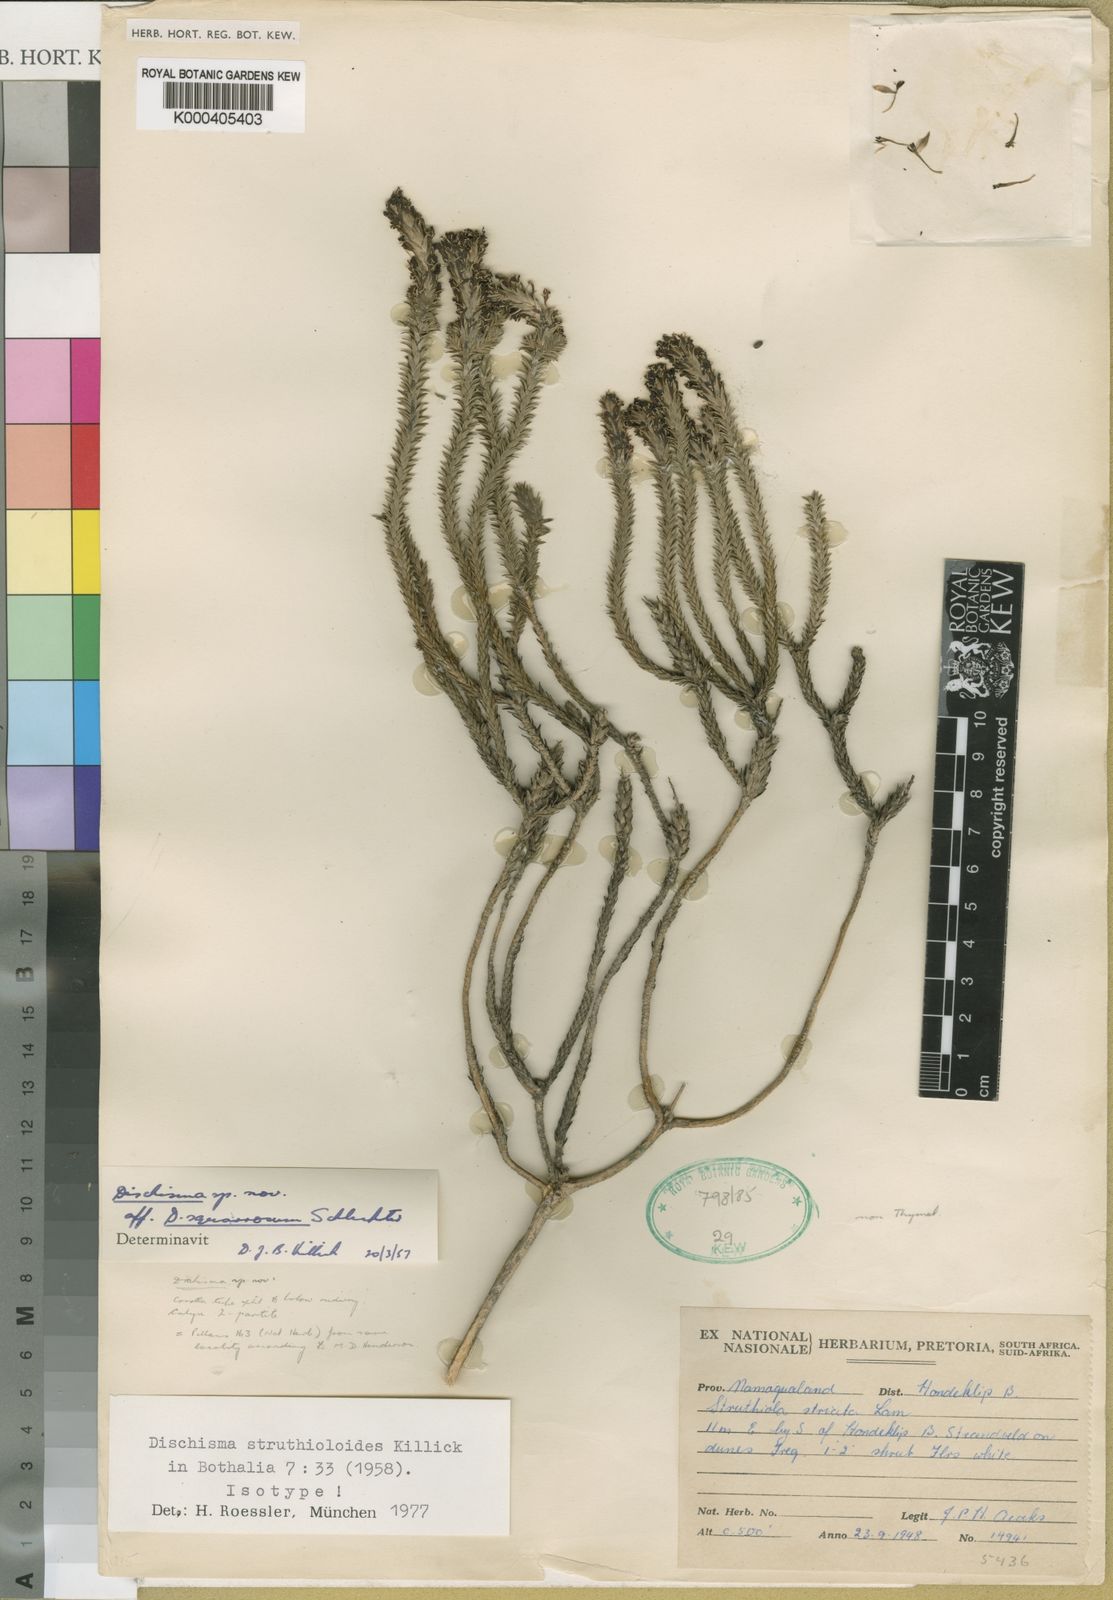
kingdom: Plantae
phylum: Tracheophyta
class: Magnoliopsida
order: Lamiales
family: Scrophulariaceae
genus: Dischisma
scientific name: Dischisma struthioloides
